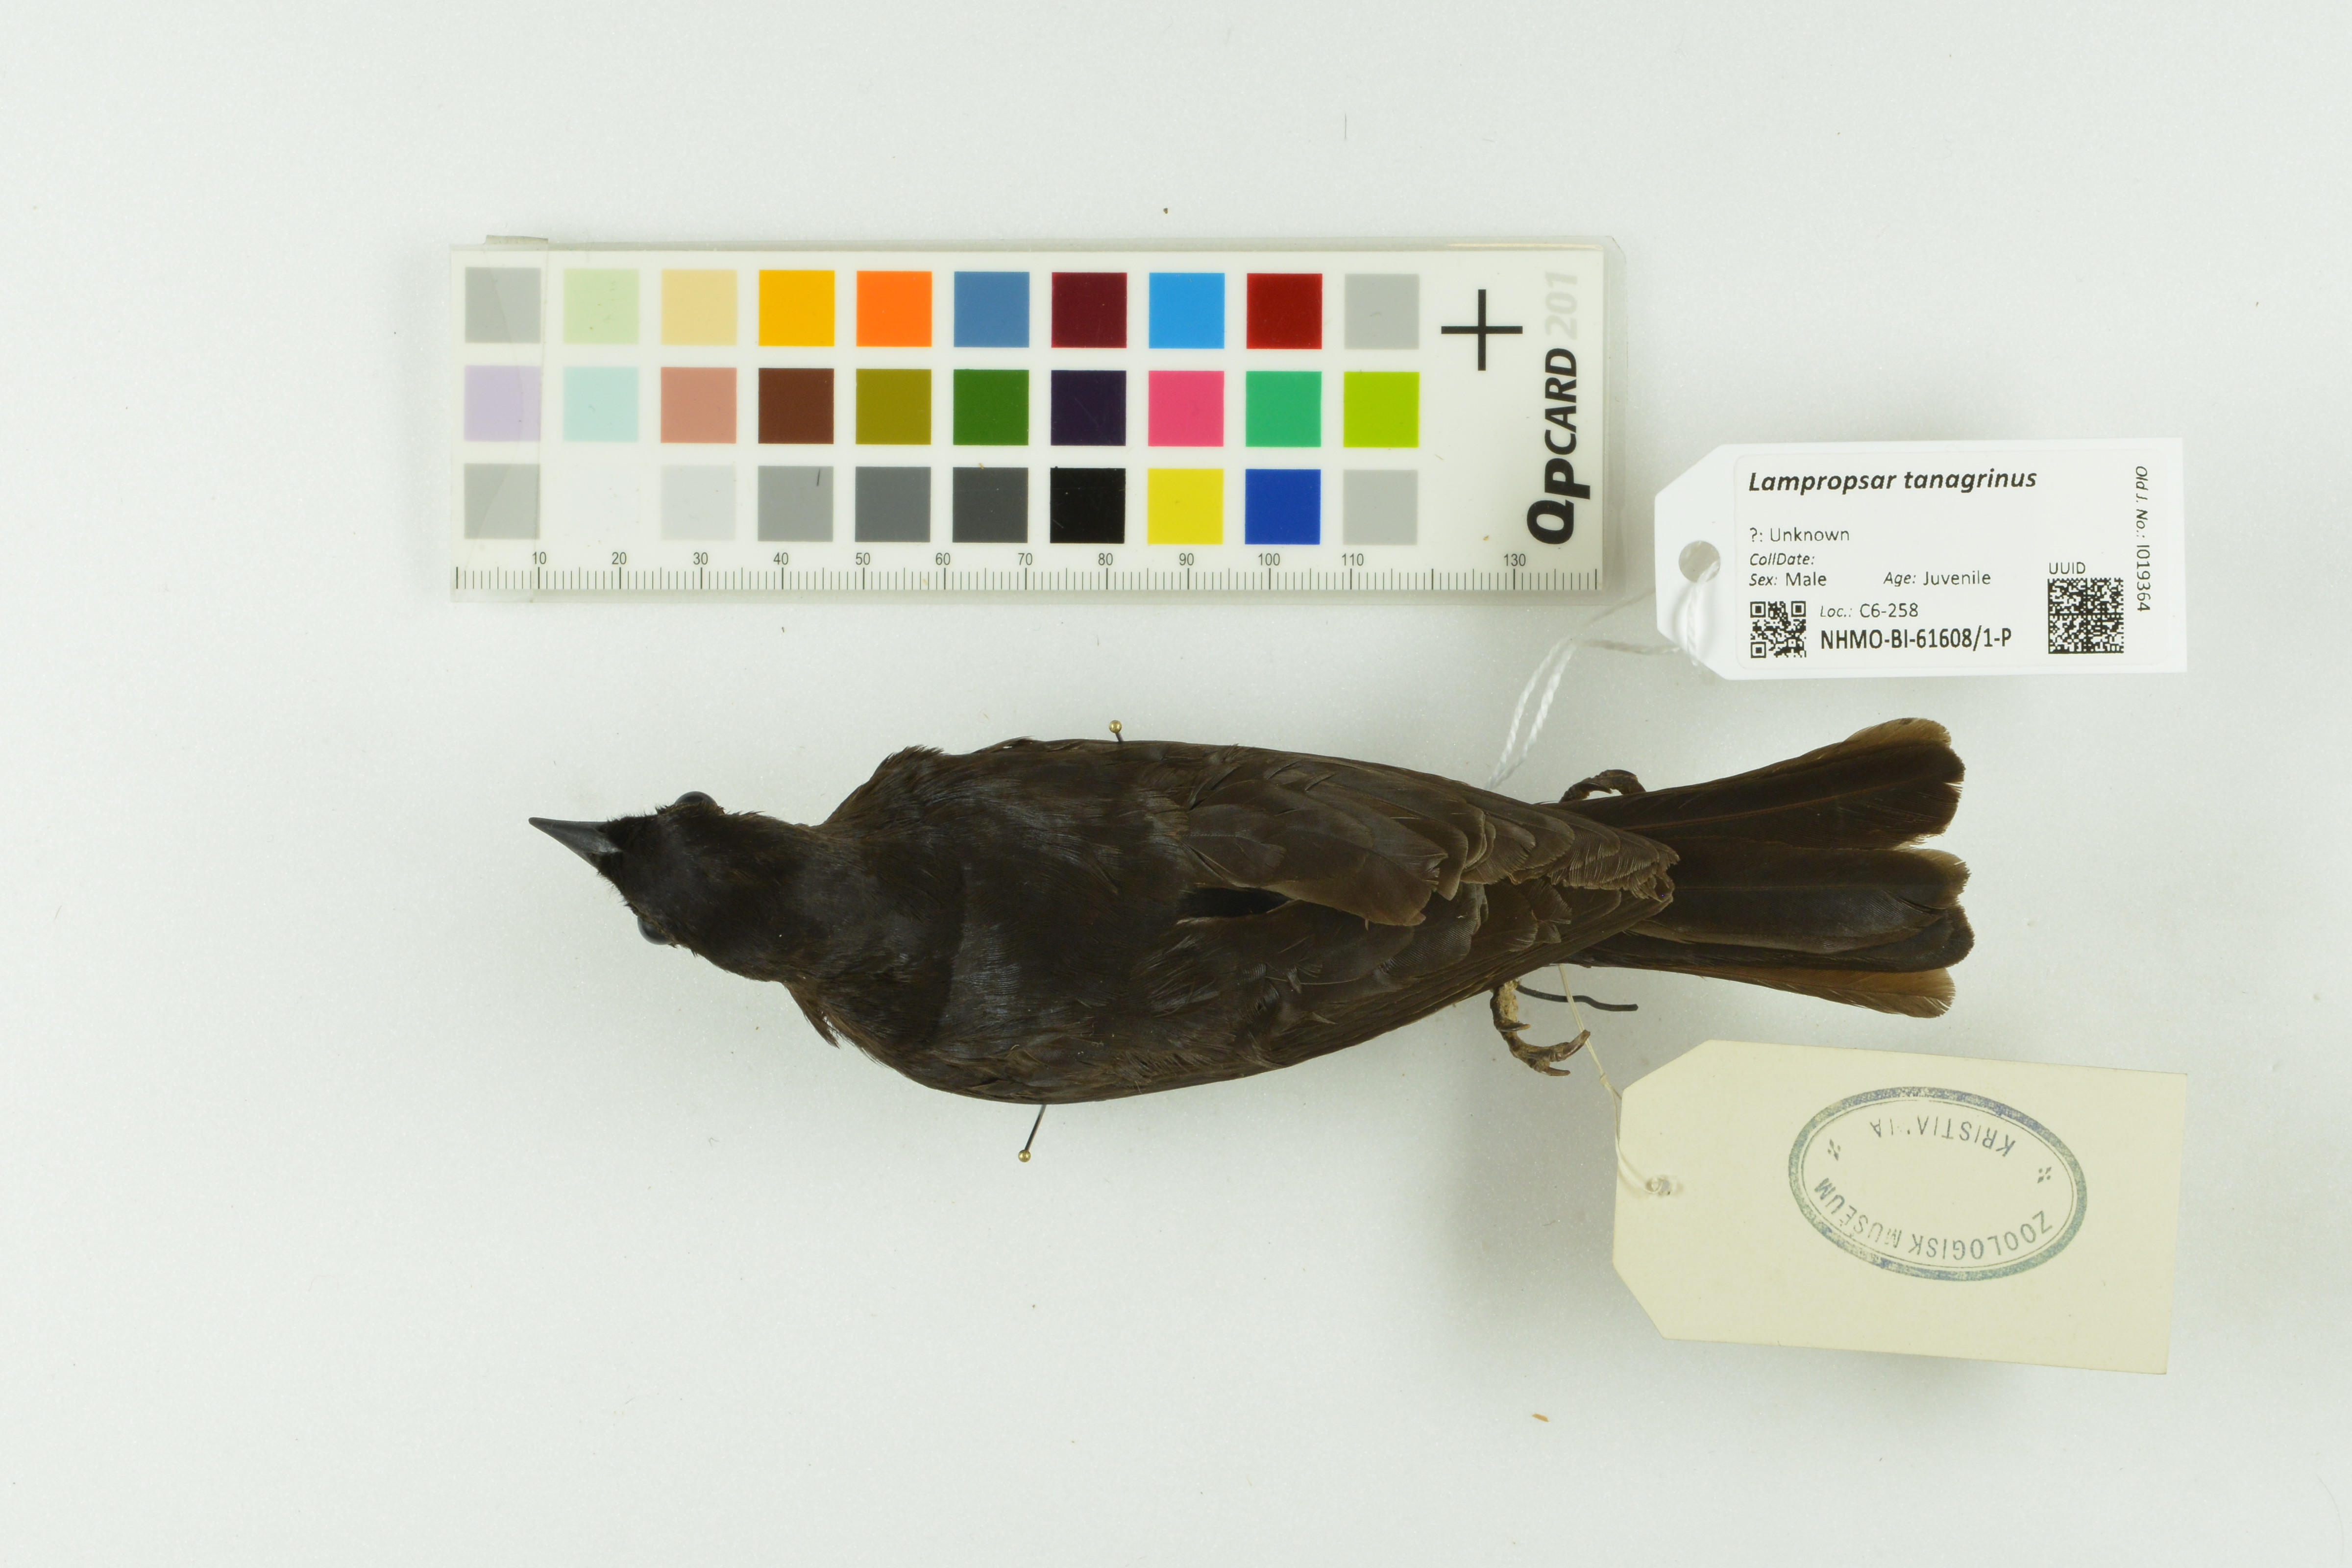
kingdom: Animalia
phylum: Chordata
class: Aves
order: Passeriformes
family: Icteridae
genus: Lampropsar
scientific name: Lampropsar tanagrinus
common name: Velvet-fronted grackle
